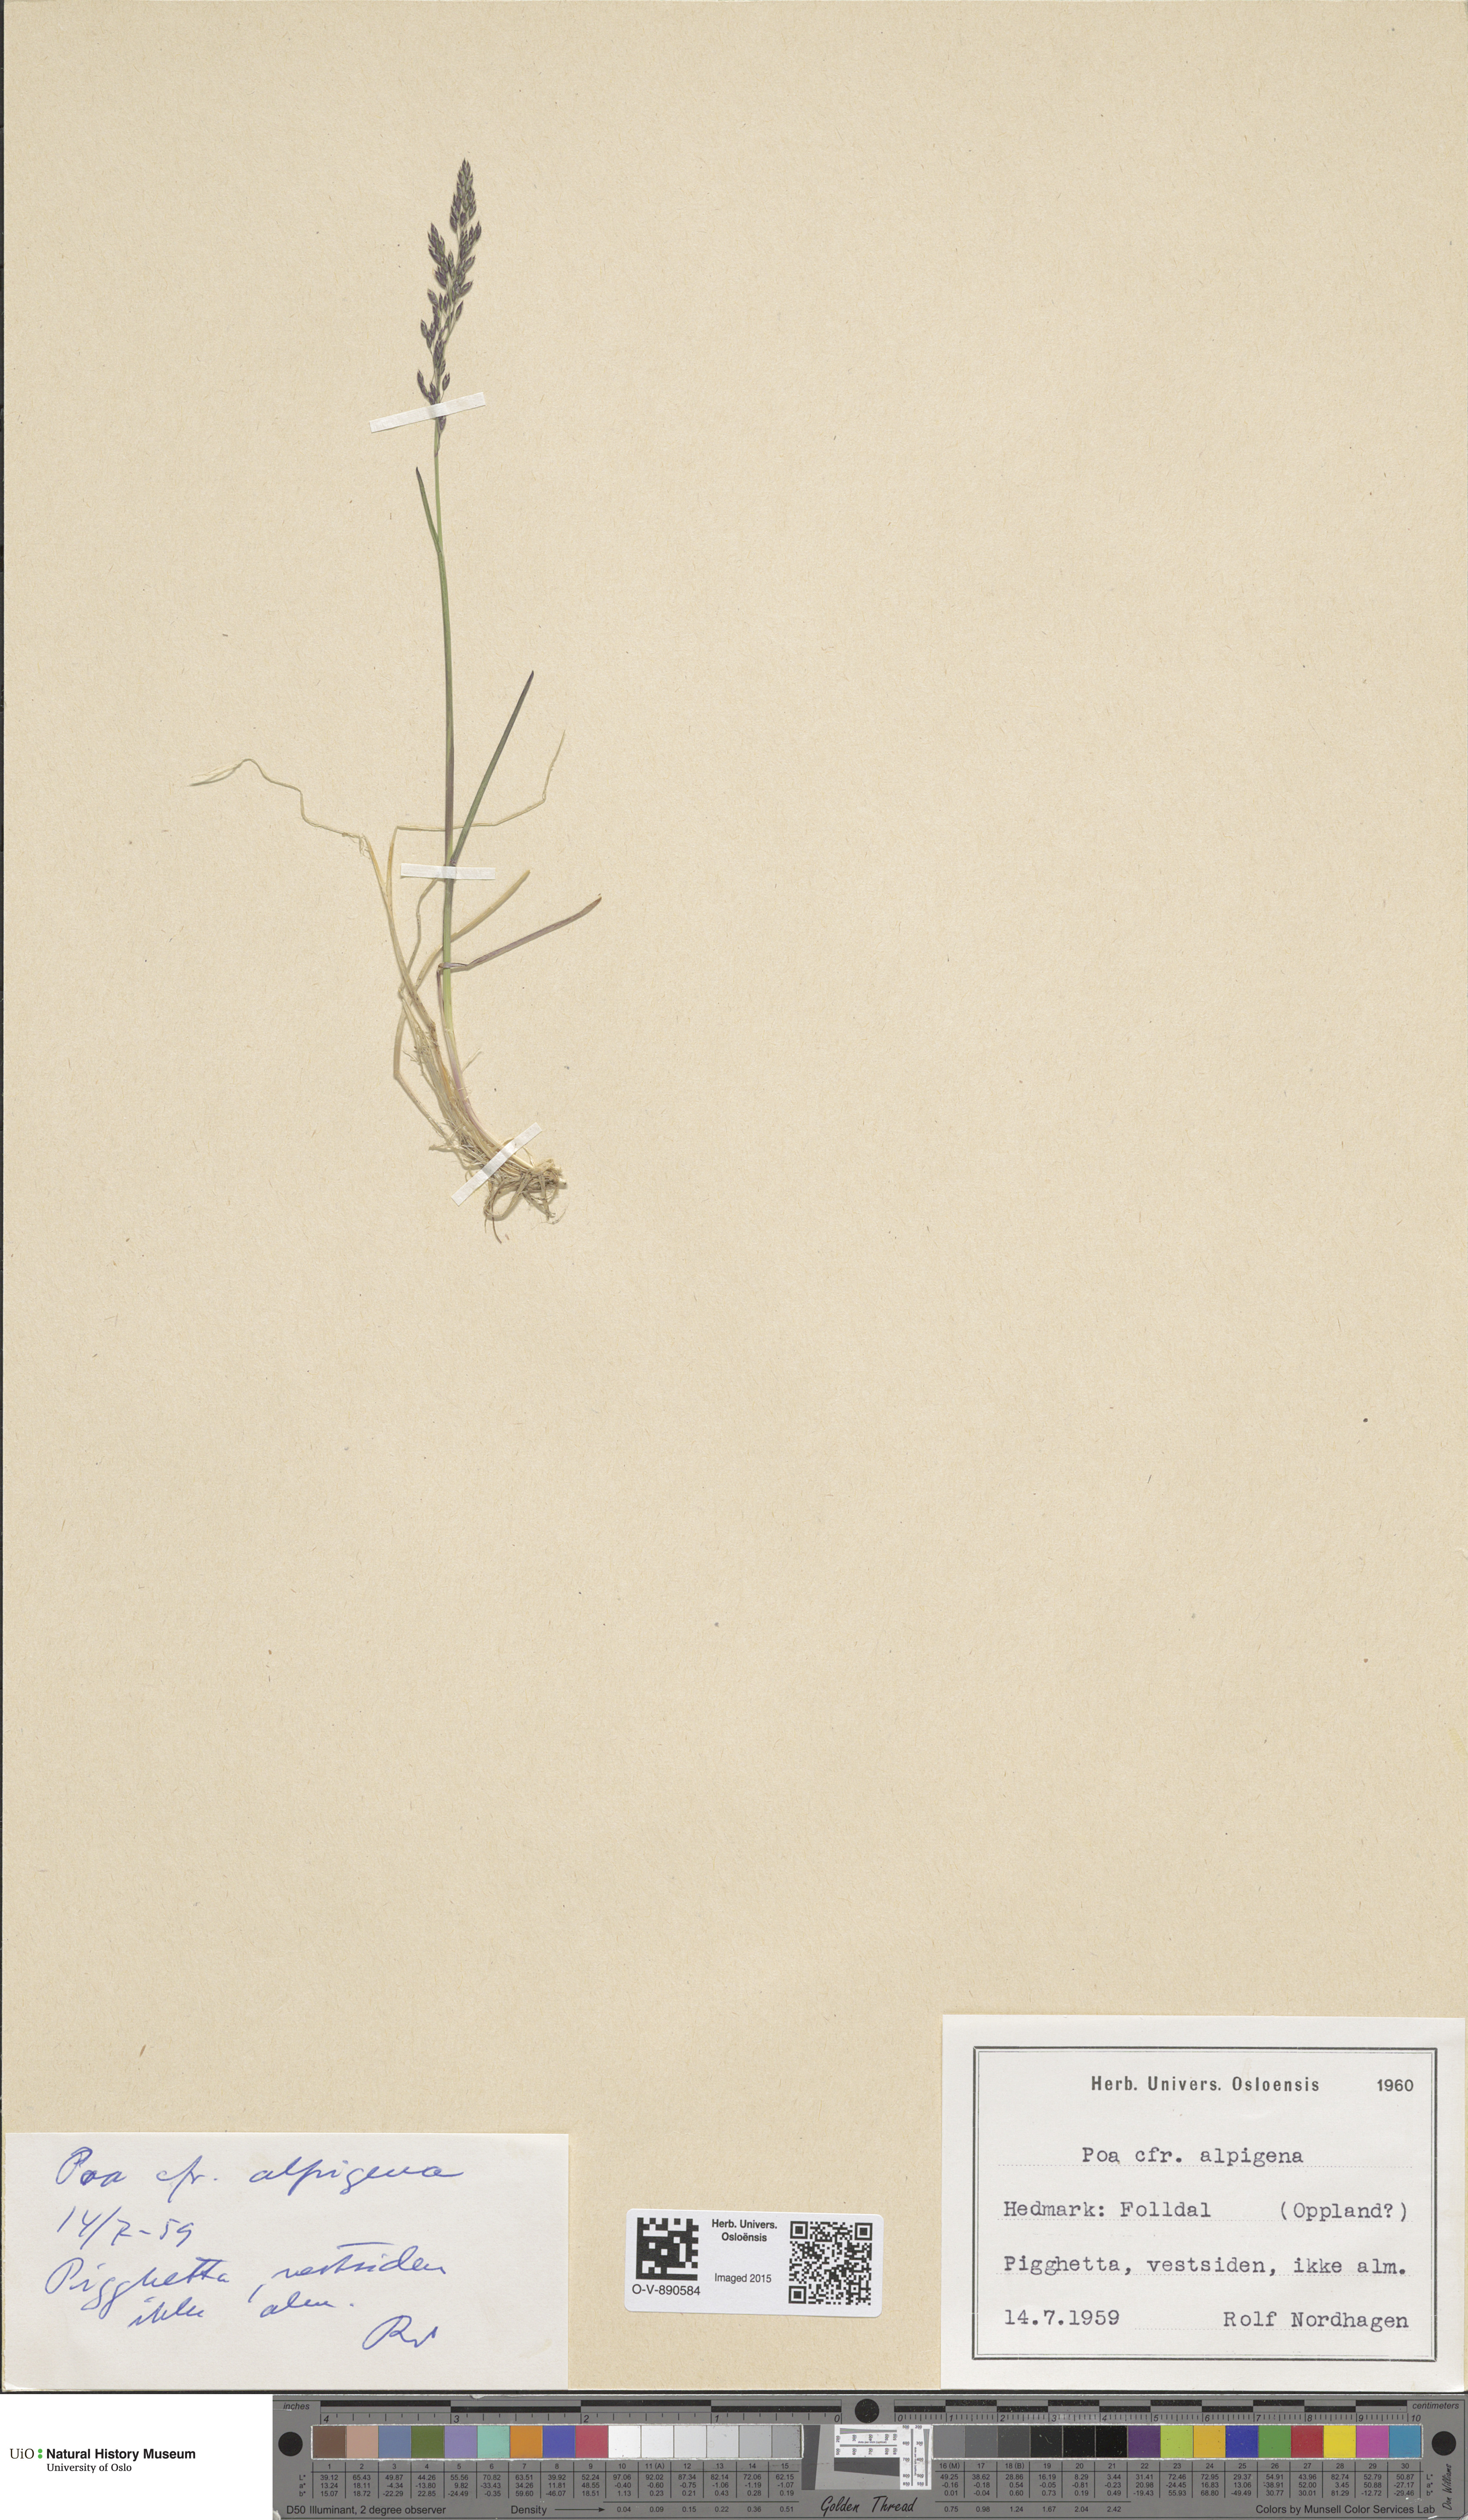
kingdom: Plantae
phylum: Tracheophyta
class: Liliopsida
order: Poales
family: Poaceae
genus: Poa
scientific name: Poa alpigena
